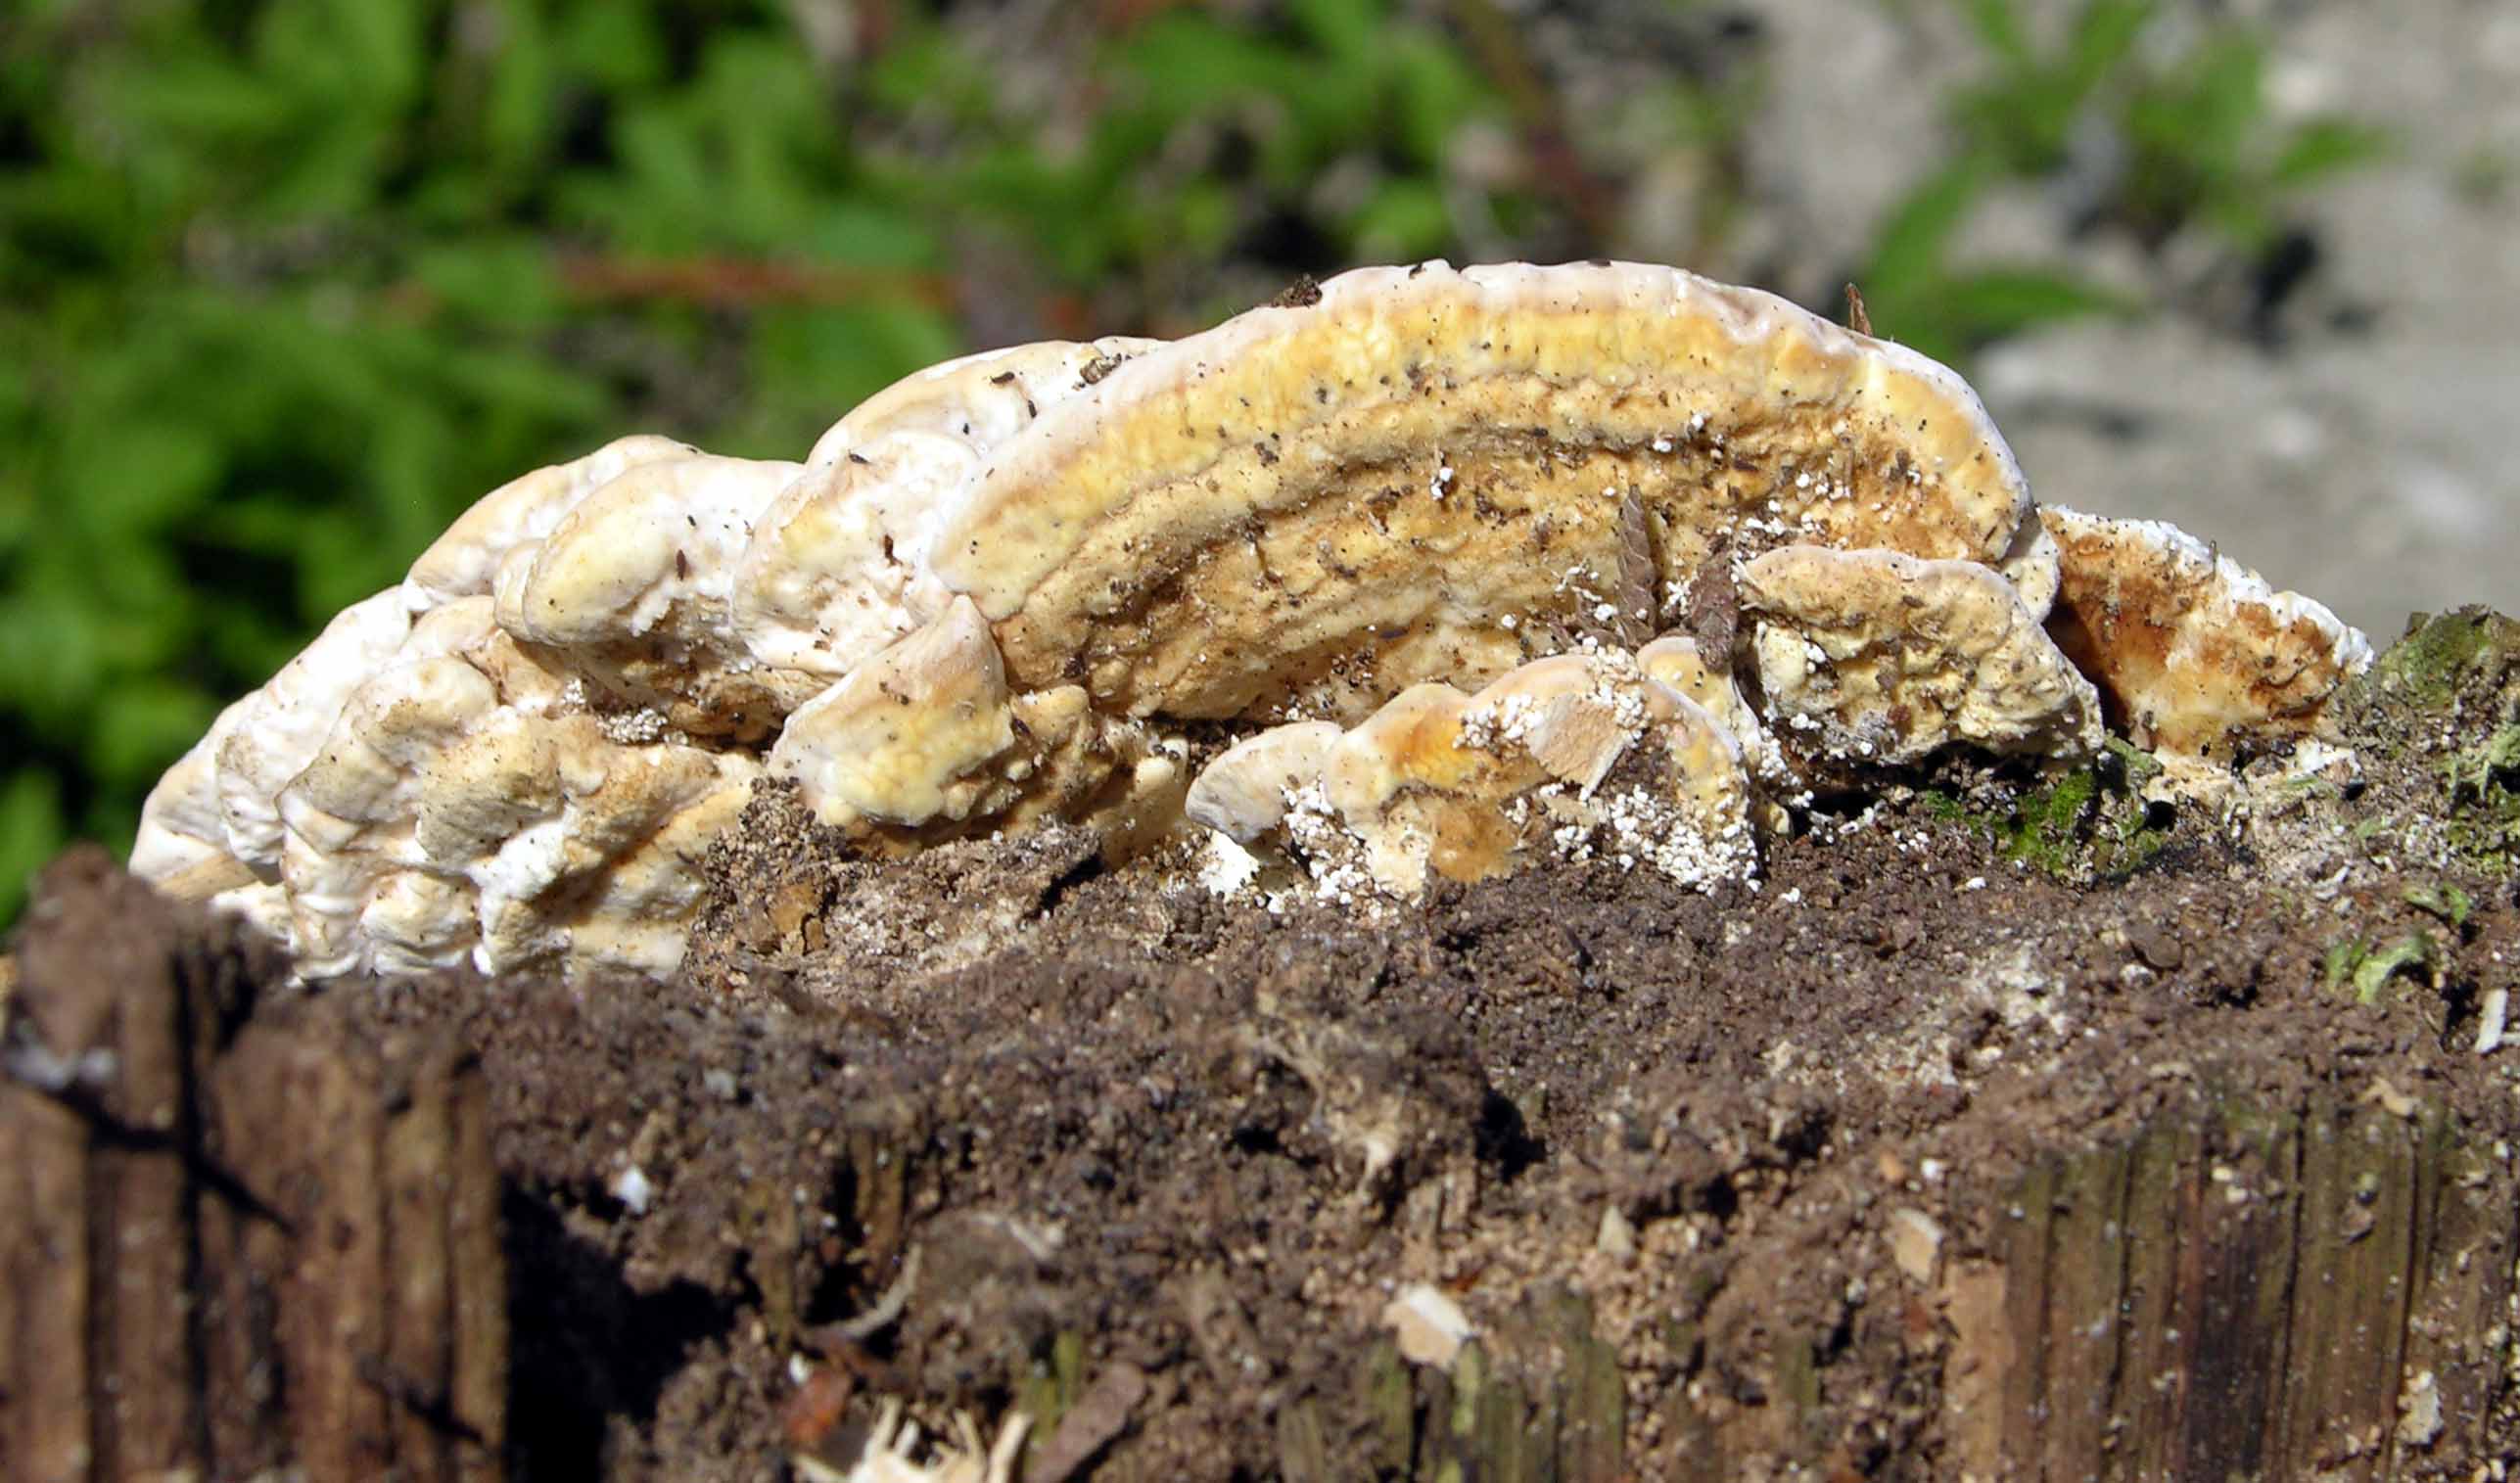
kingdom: Fungi
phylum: Basidiomycota
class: Agaricomycetes
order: Polyporales
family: Polyporaceae
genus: Trametes
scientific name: Trametes ochracea
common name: bæltet læderporesvamp
